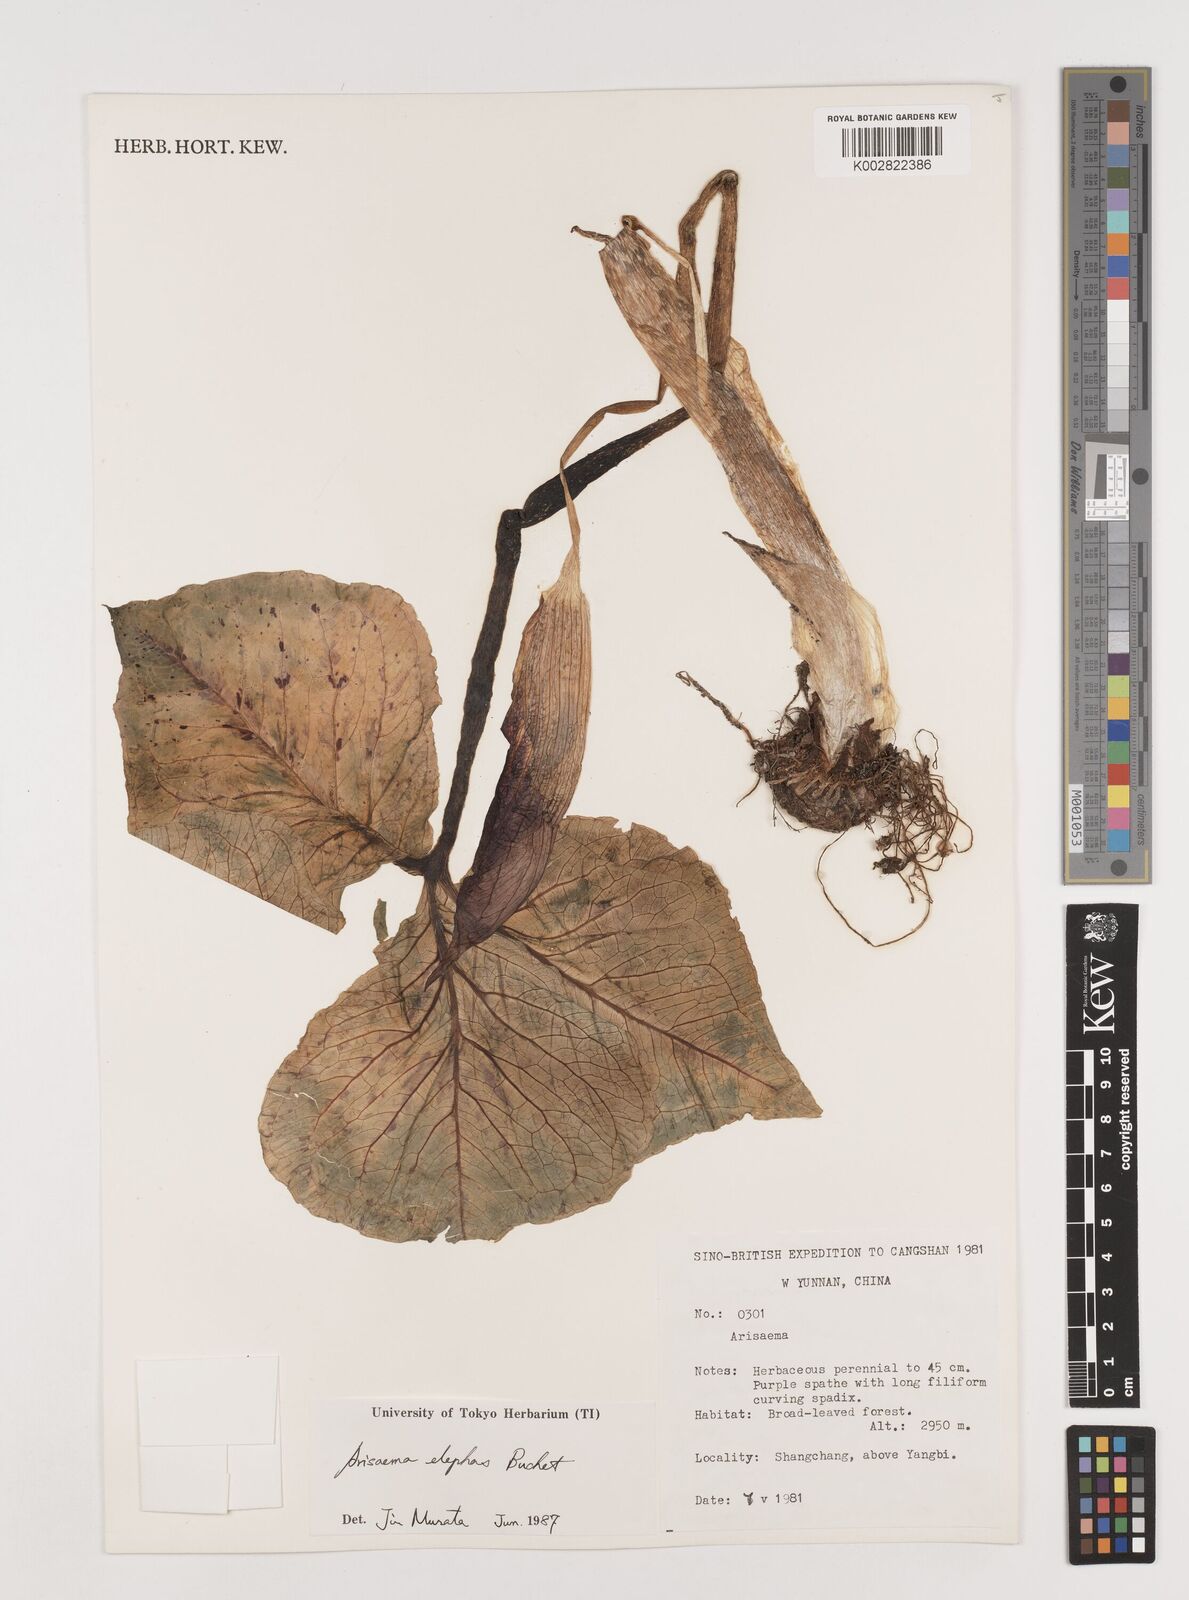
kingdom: Plantae
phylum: Tracheophyta
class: Liliopsida
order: Alismatales
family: Araceae
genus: Arisaema
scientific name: Arisaema elephas
